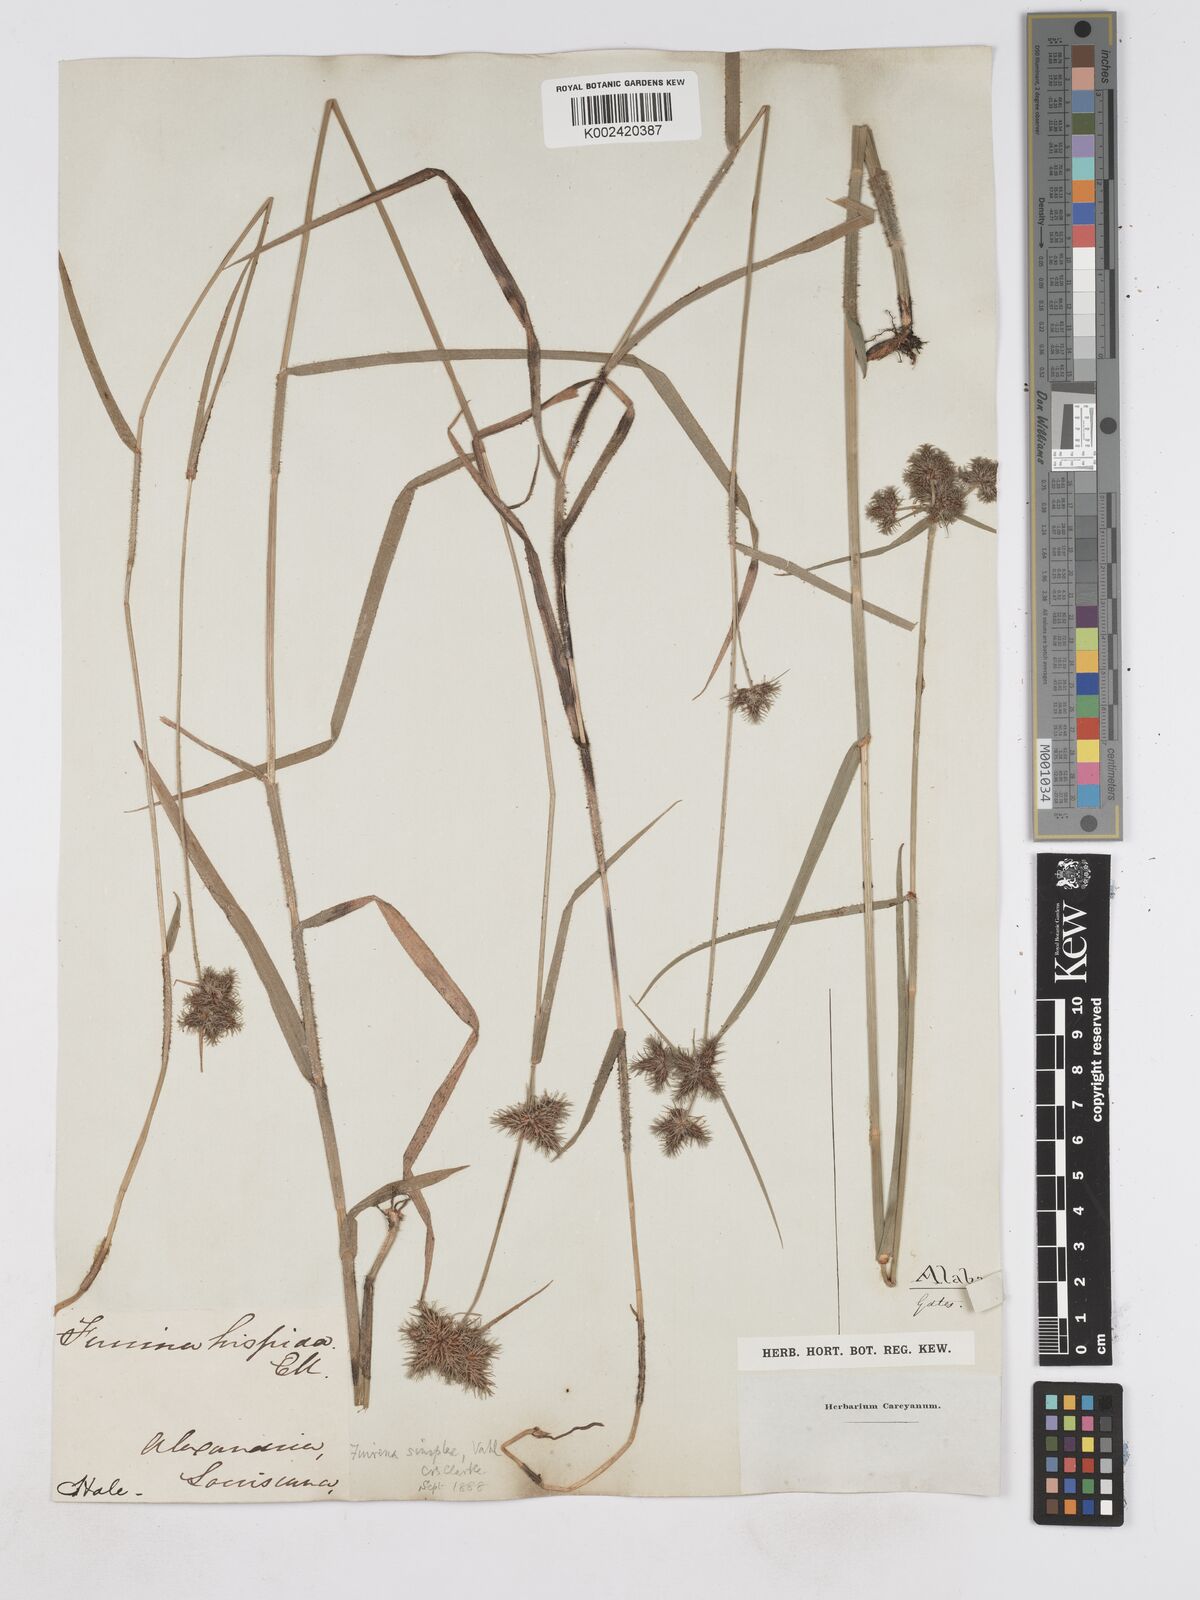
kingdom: Plantae
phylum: Tracheophyta
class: Liliopsida
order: Poales
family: Cyperaceae
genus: Fuirena
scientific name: Fuirena simplex
